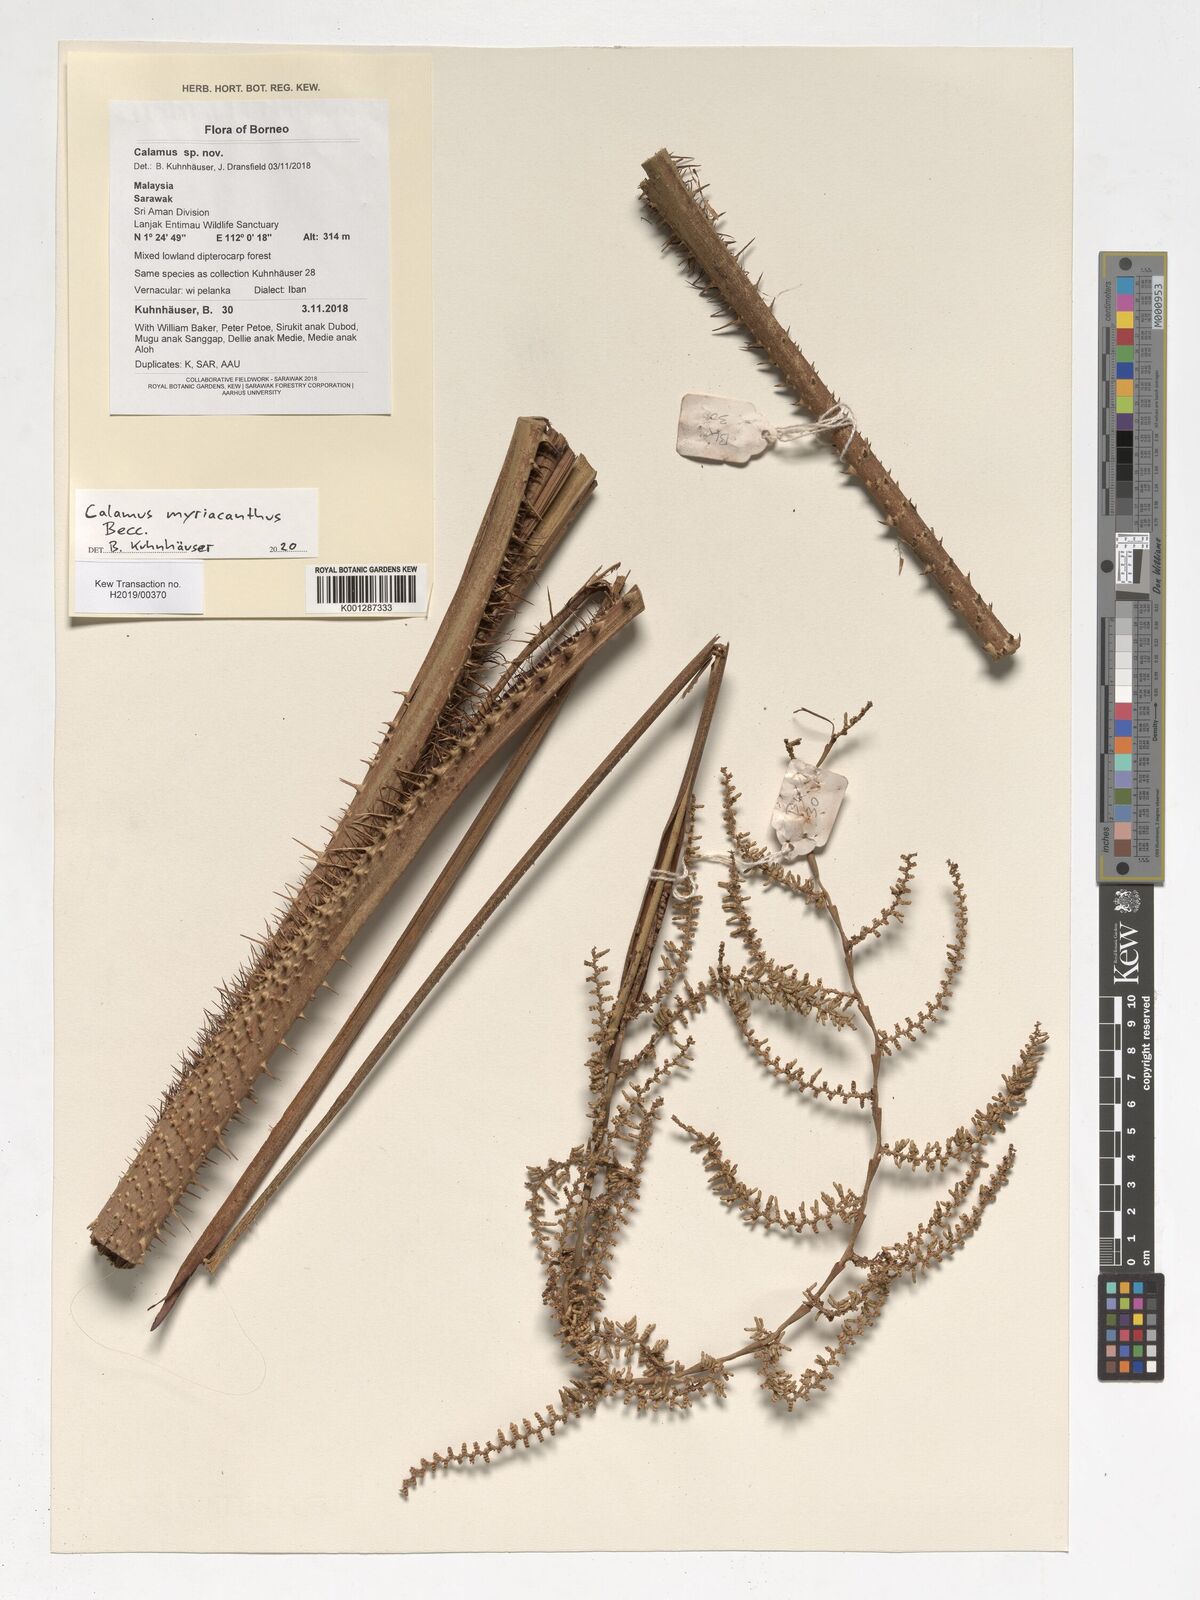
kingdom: Plantae
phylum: Tracheophyta
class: Liliopsida
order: Arecales
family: Arecaceae
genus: Calamus
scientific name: Calamus myriacanthus
